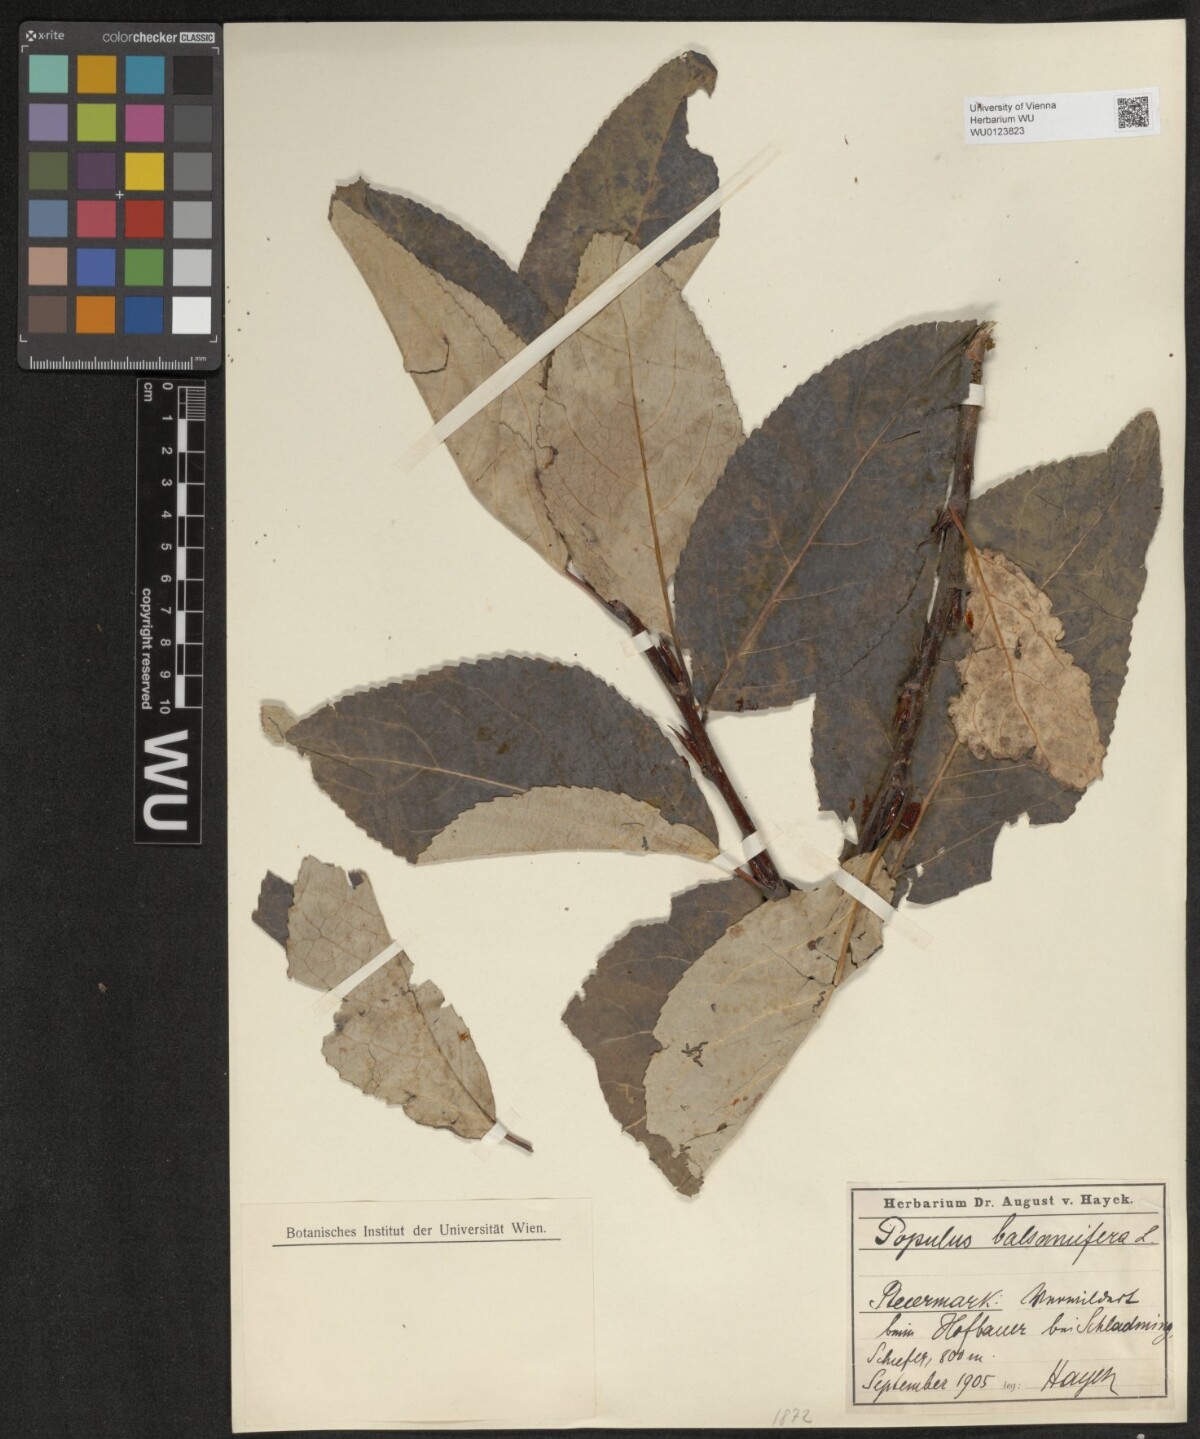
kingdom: Plantae
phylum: Tracheophyta
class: Magnoliopsida
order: Malpighiales
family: Salicaceae
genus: Populus
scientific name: Populus balsamifera
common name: Balsam poplar
